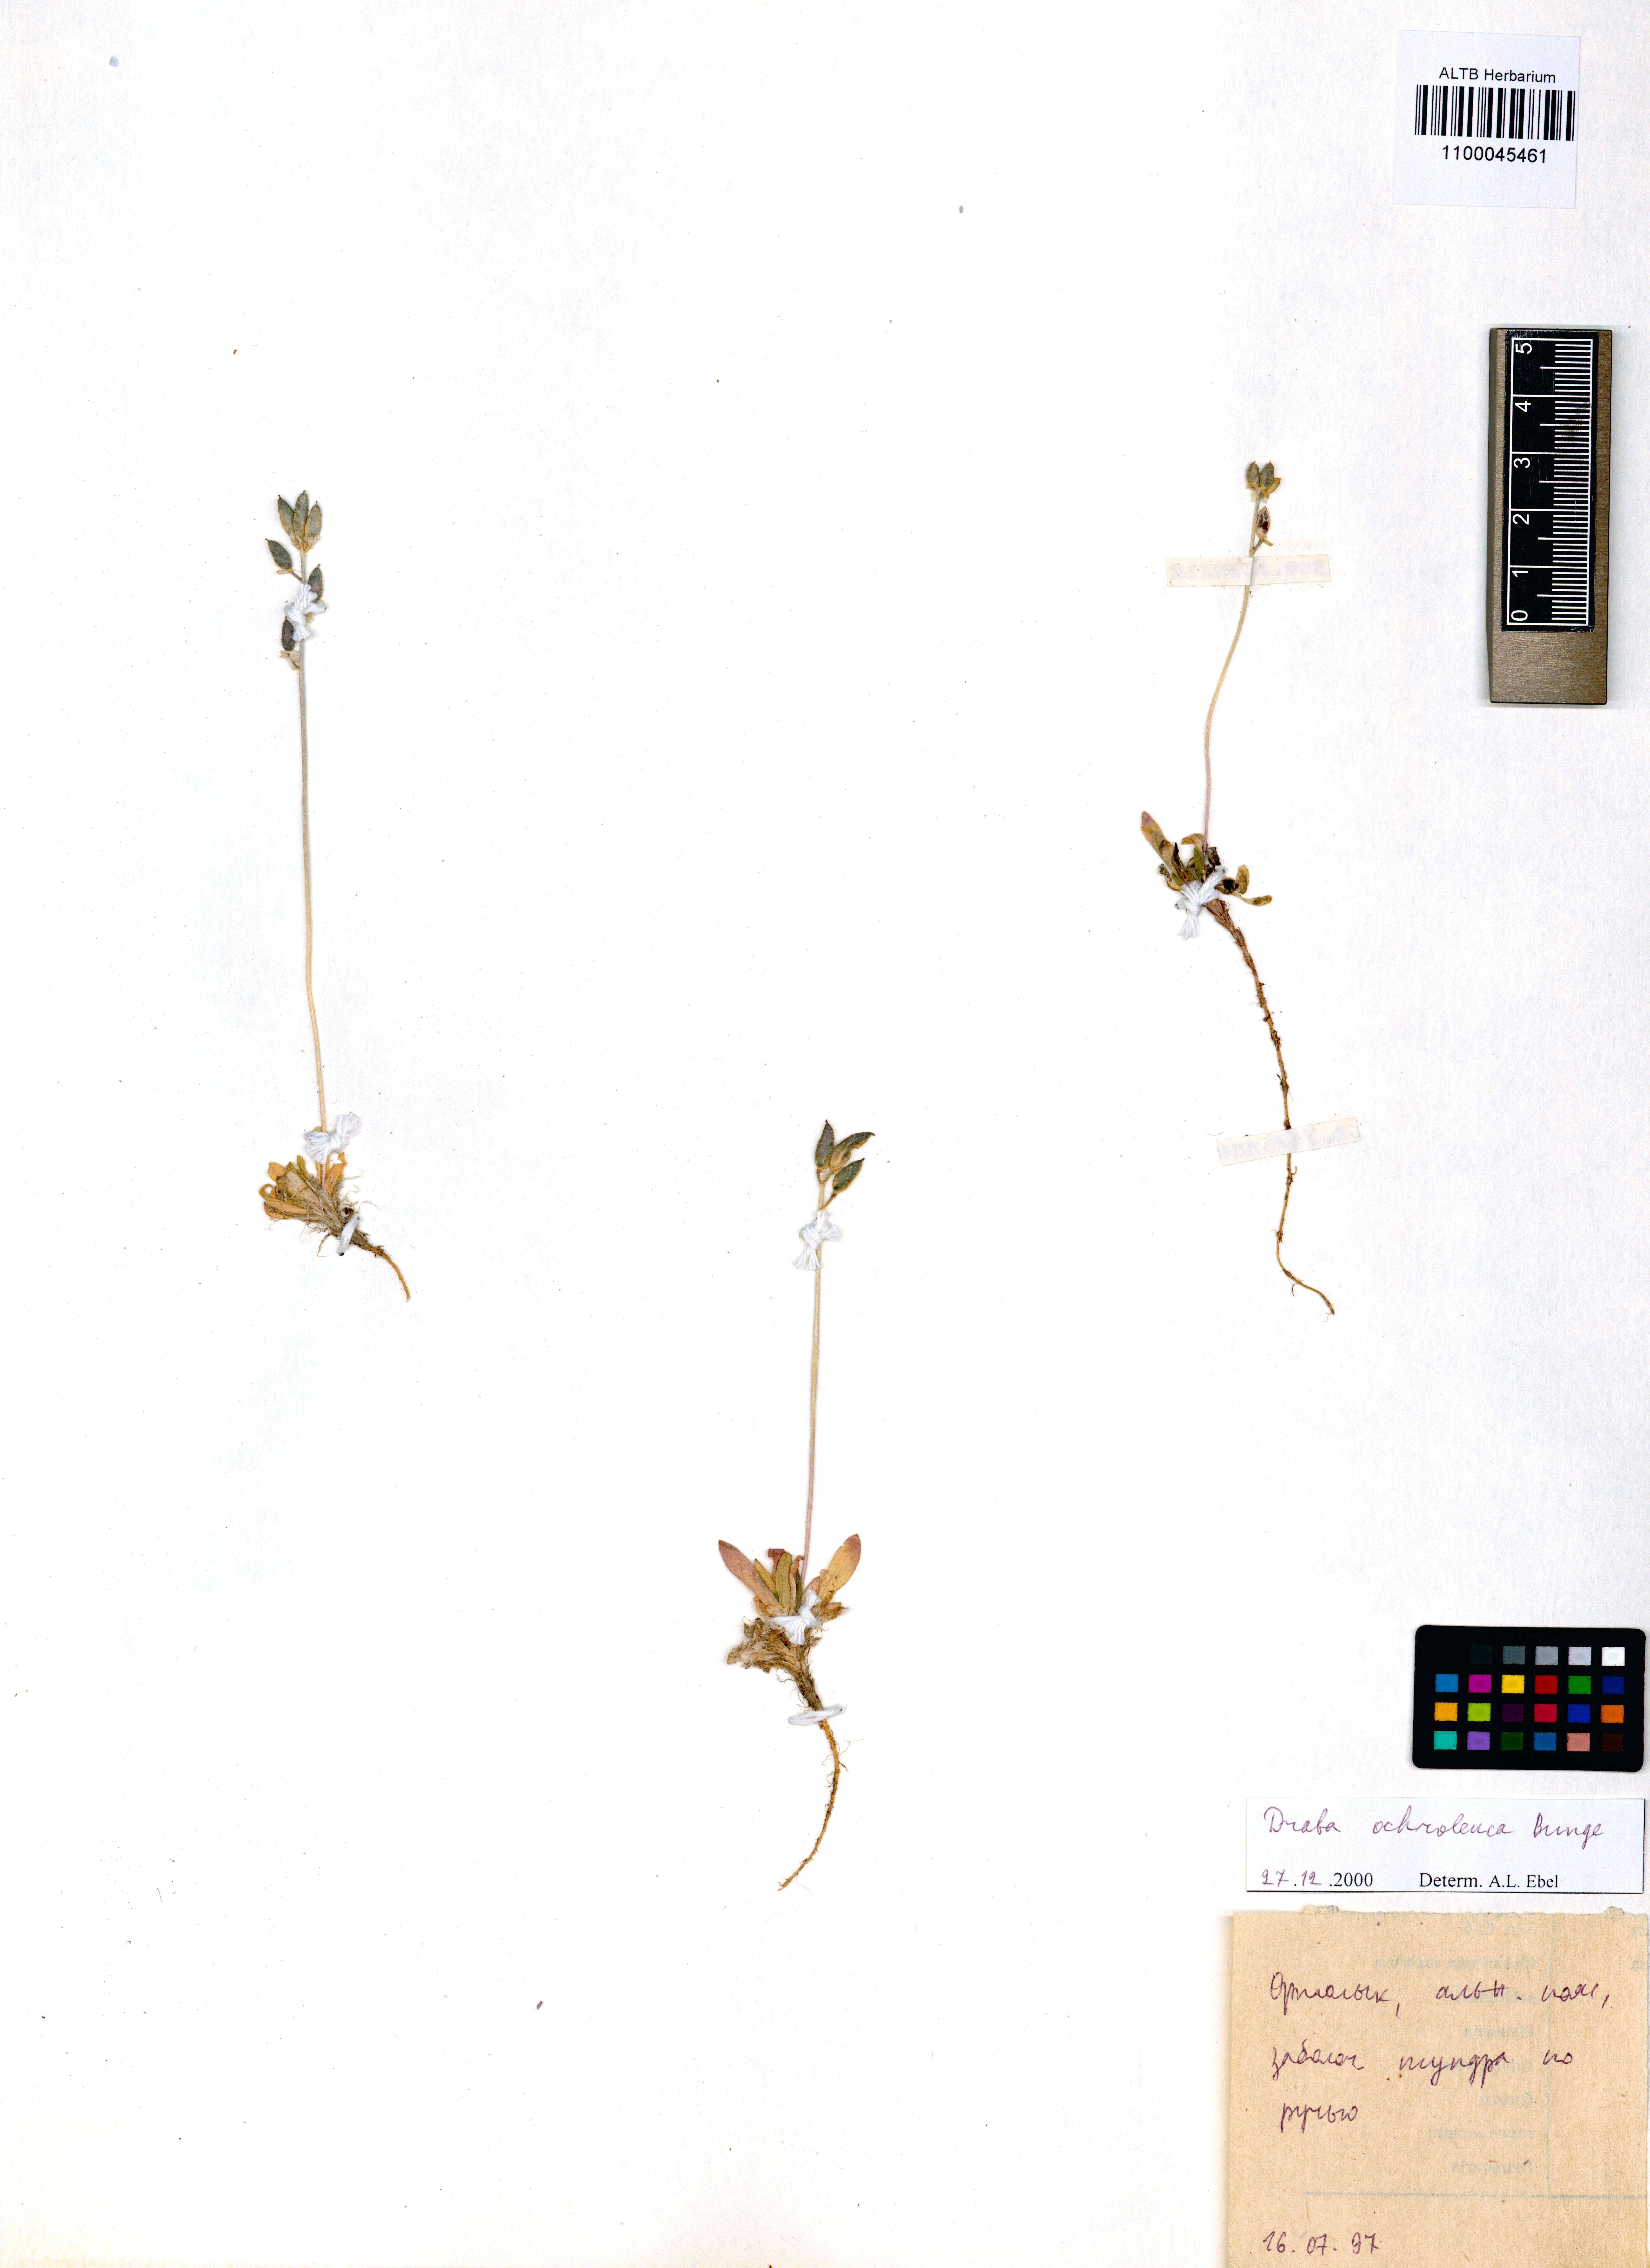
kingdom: Plantae
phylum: Tracheophyta
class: Magnoliopsida
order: Brassicales
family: Brassicaceae
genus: Draba
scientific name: Draba ochroleuca
